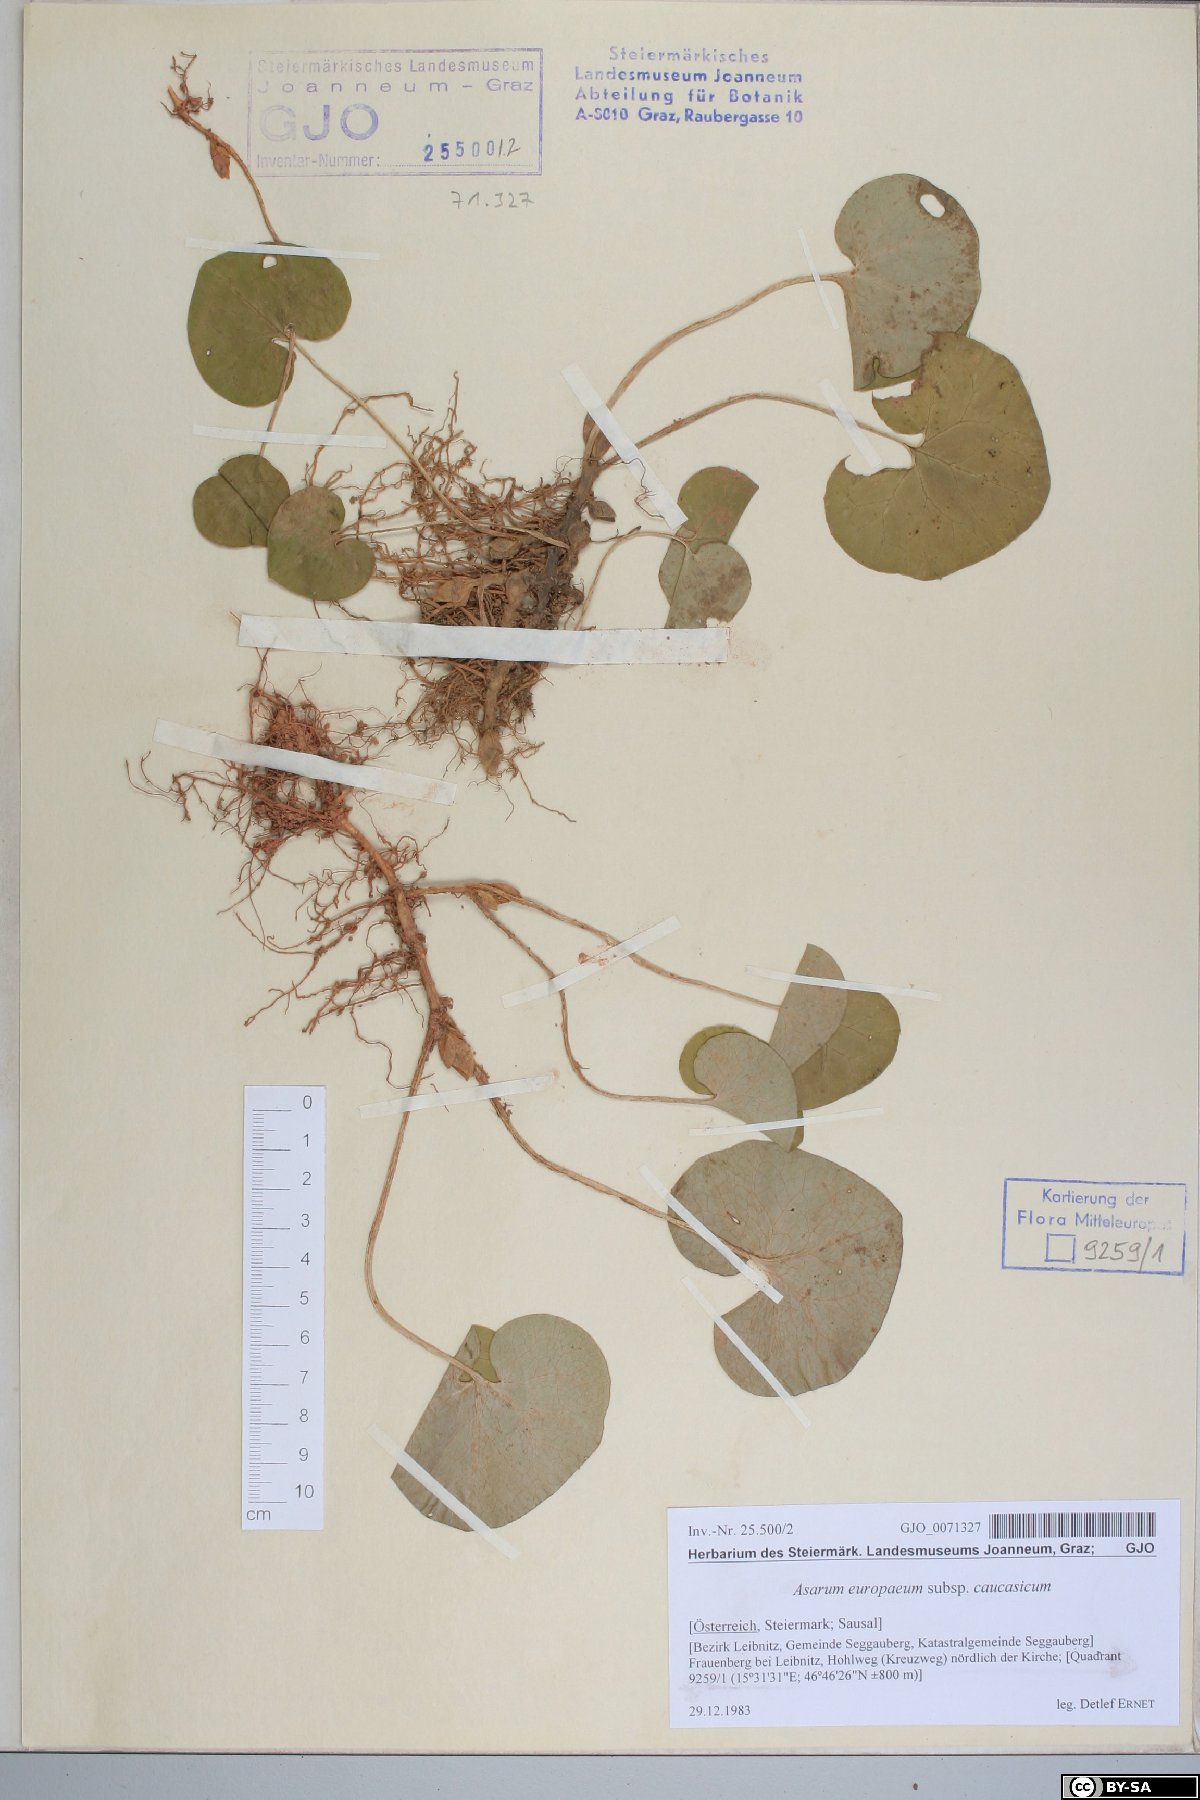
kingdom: Plantae
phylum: Tracheophyta
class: Magnoliopsida
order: Piperales
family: Aristolochiaceae
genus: Asarum
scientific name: Asarum europaeum
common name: Asarabacca
